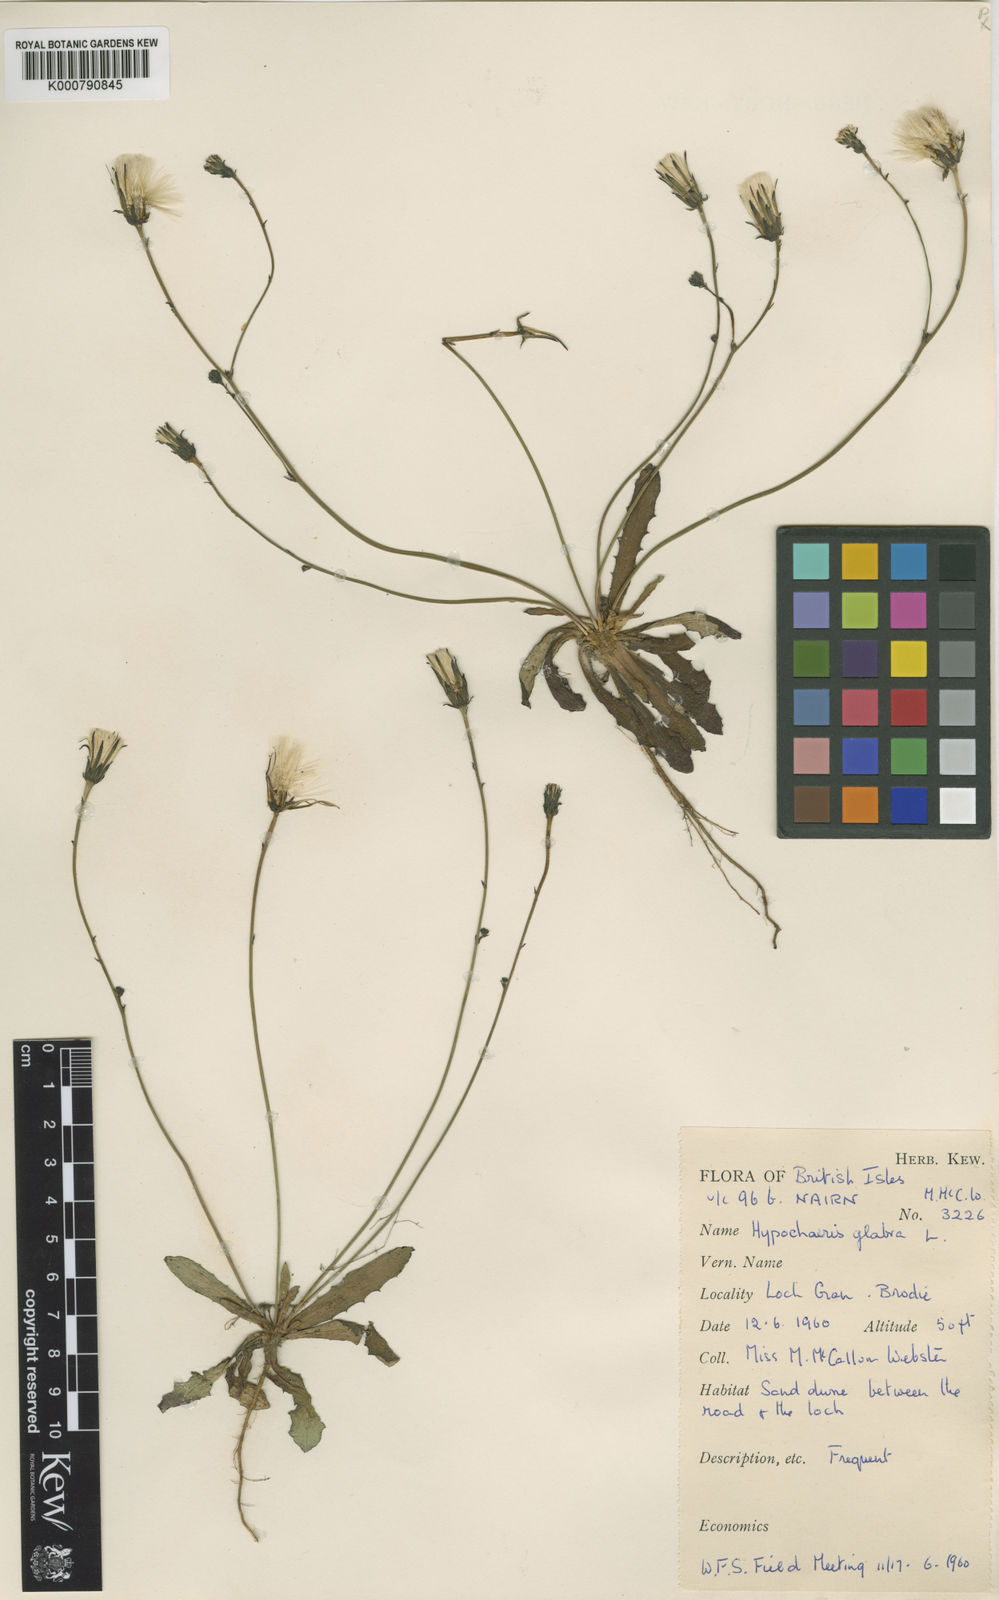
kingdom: Plantae
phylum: Tracheophyta
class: Magnoliopsida
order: Asterales
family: Asteraceae
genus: Hypochaeris
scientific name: Hypochaeris glabra
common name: Smooth catsear
